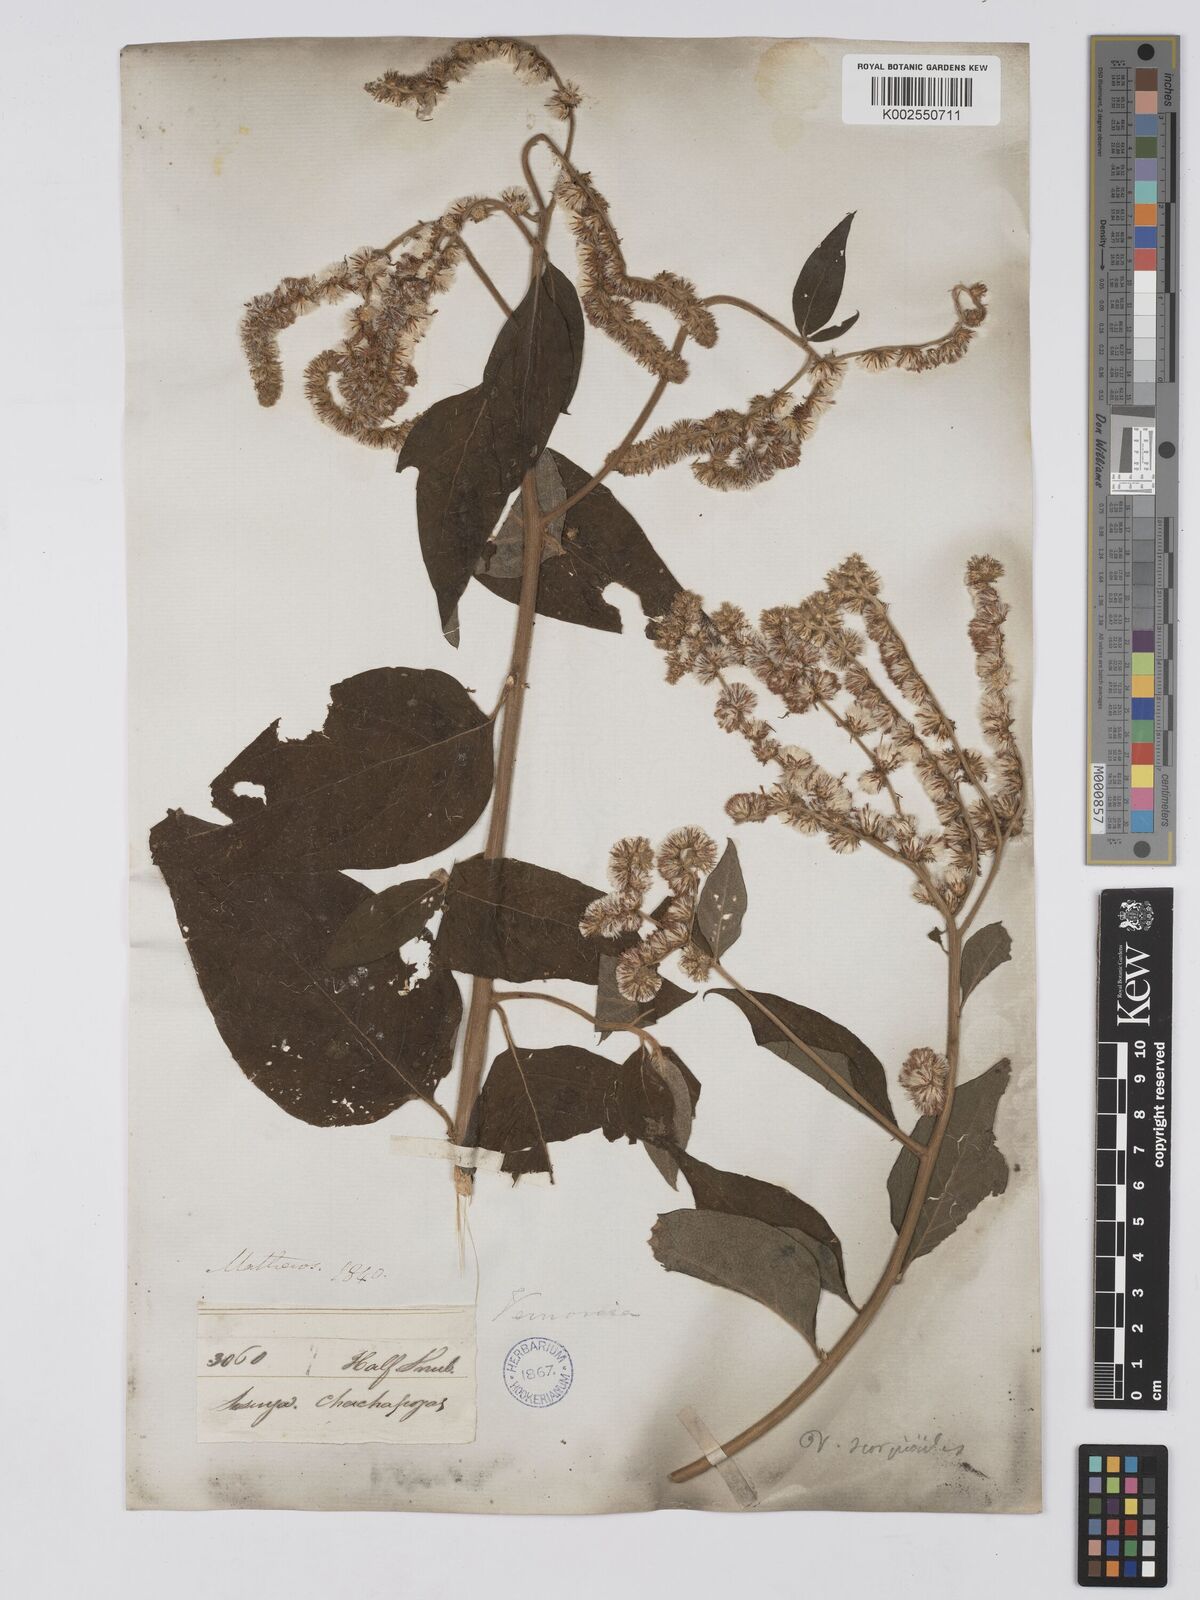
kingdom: Plantae
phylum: Tracheophyta
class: Magnoliopsida
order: Asterales
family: Asteraceae
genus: Cyrtocymura
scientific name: Cyrtocymura scorpioides
